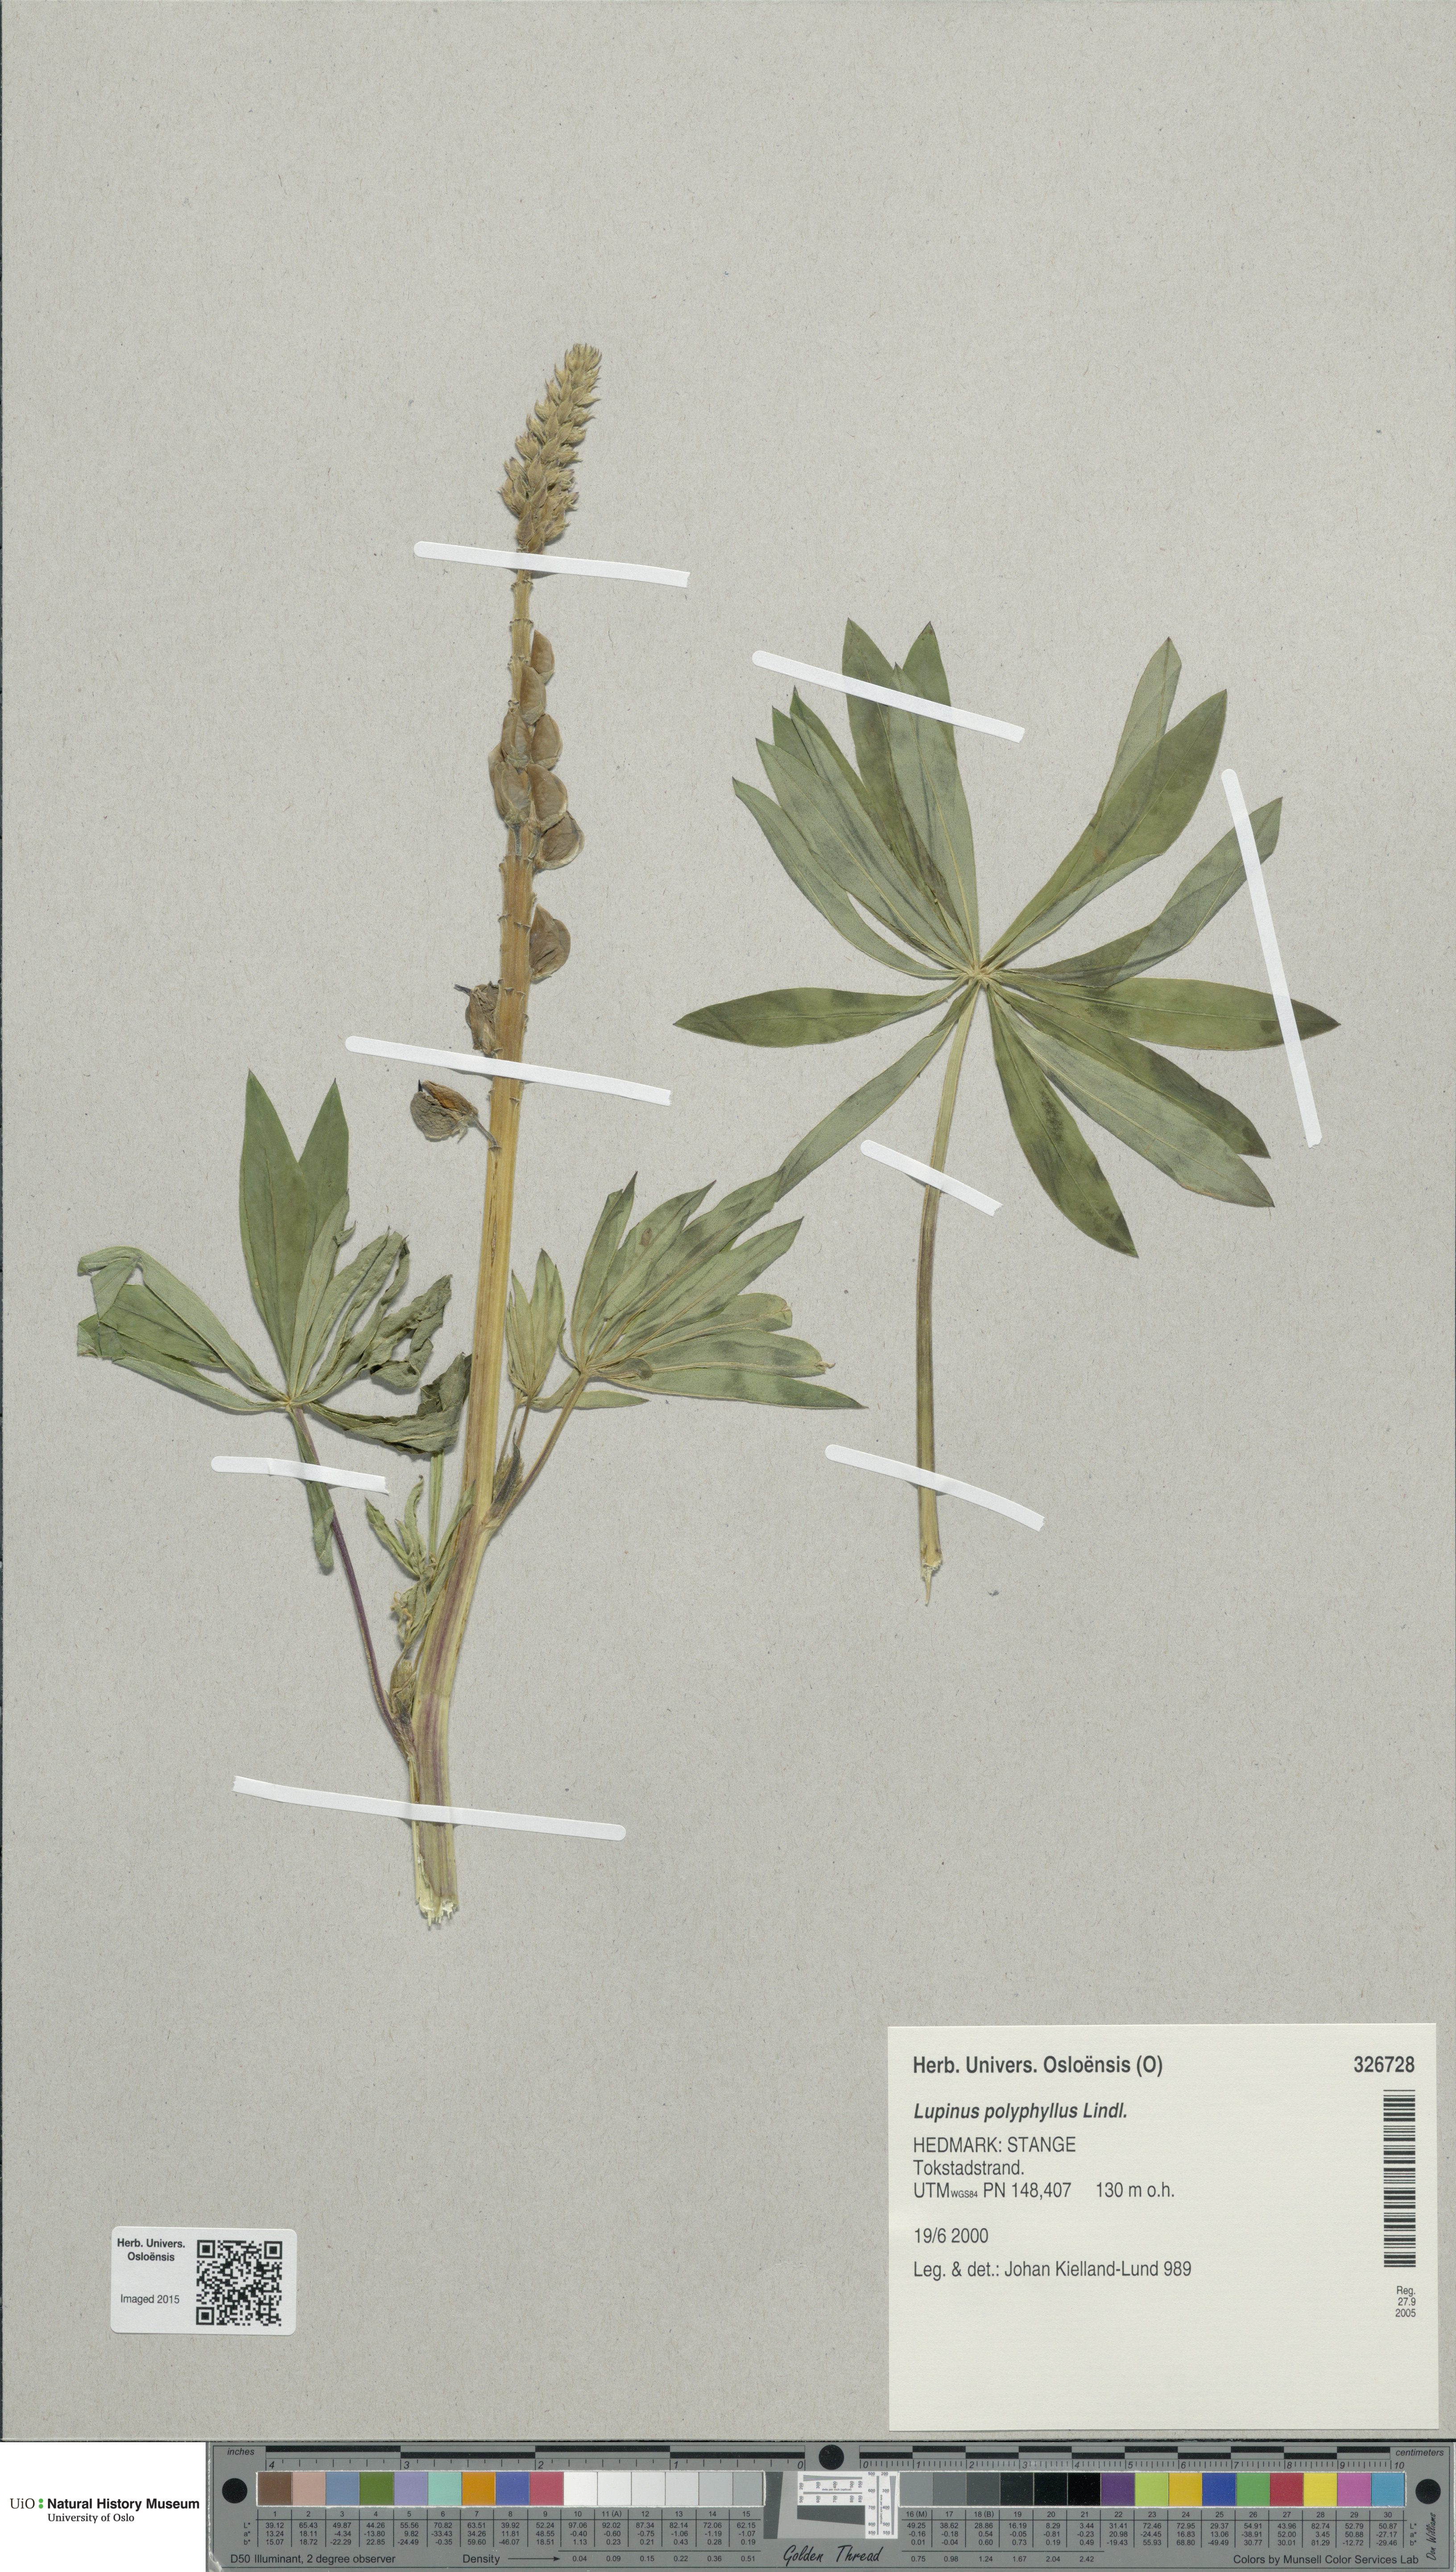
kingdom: Plantae
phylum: Tracheophyta
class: Magnoliopsida
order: Fabales
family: Fabaceae
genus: Lupinus
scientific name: Lupinus polyphyllus
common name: Garden lupin
